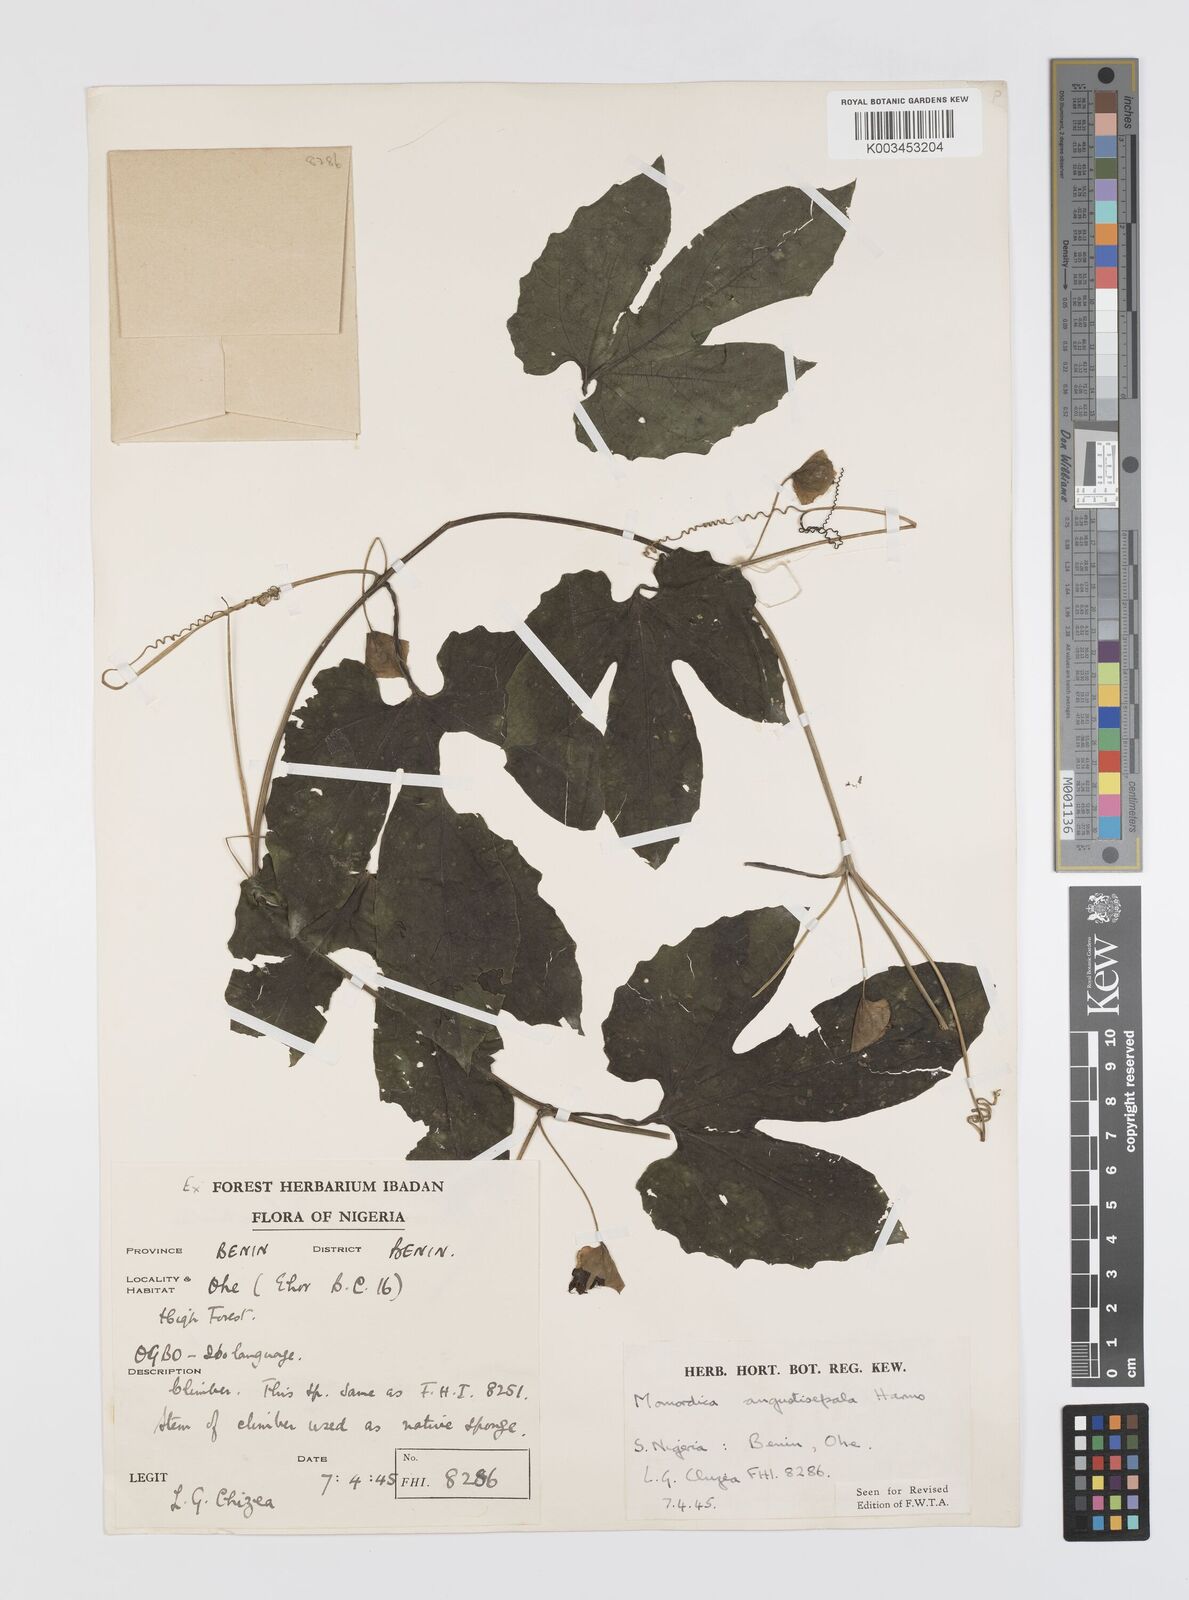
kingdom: Plantae
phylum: Tracheophyta
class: Magnoliopsida
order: Cucurbitales
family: Cucurbitaceae
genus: Momordica
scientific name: Momordica angustisepala
